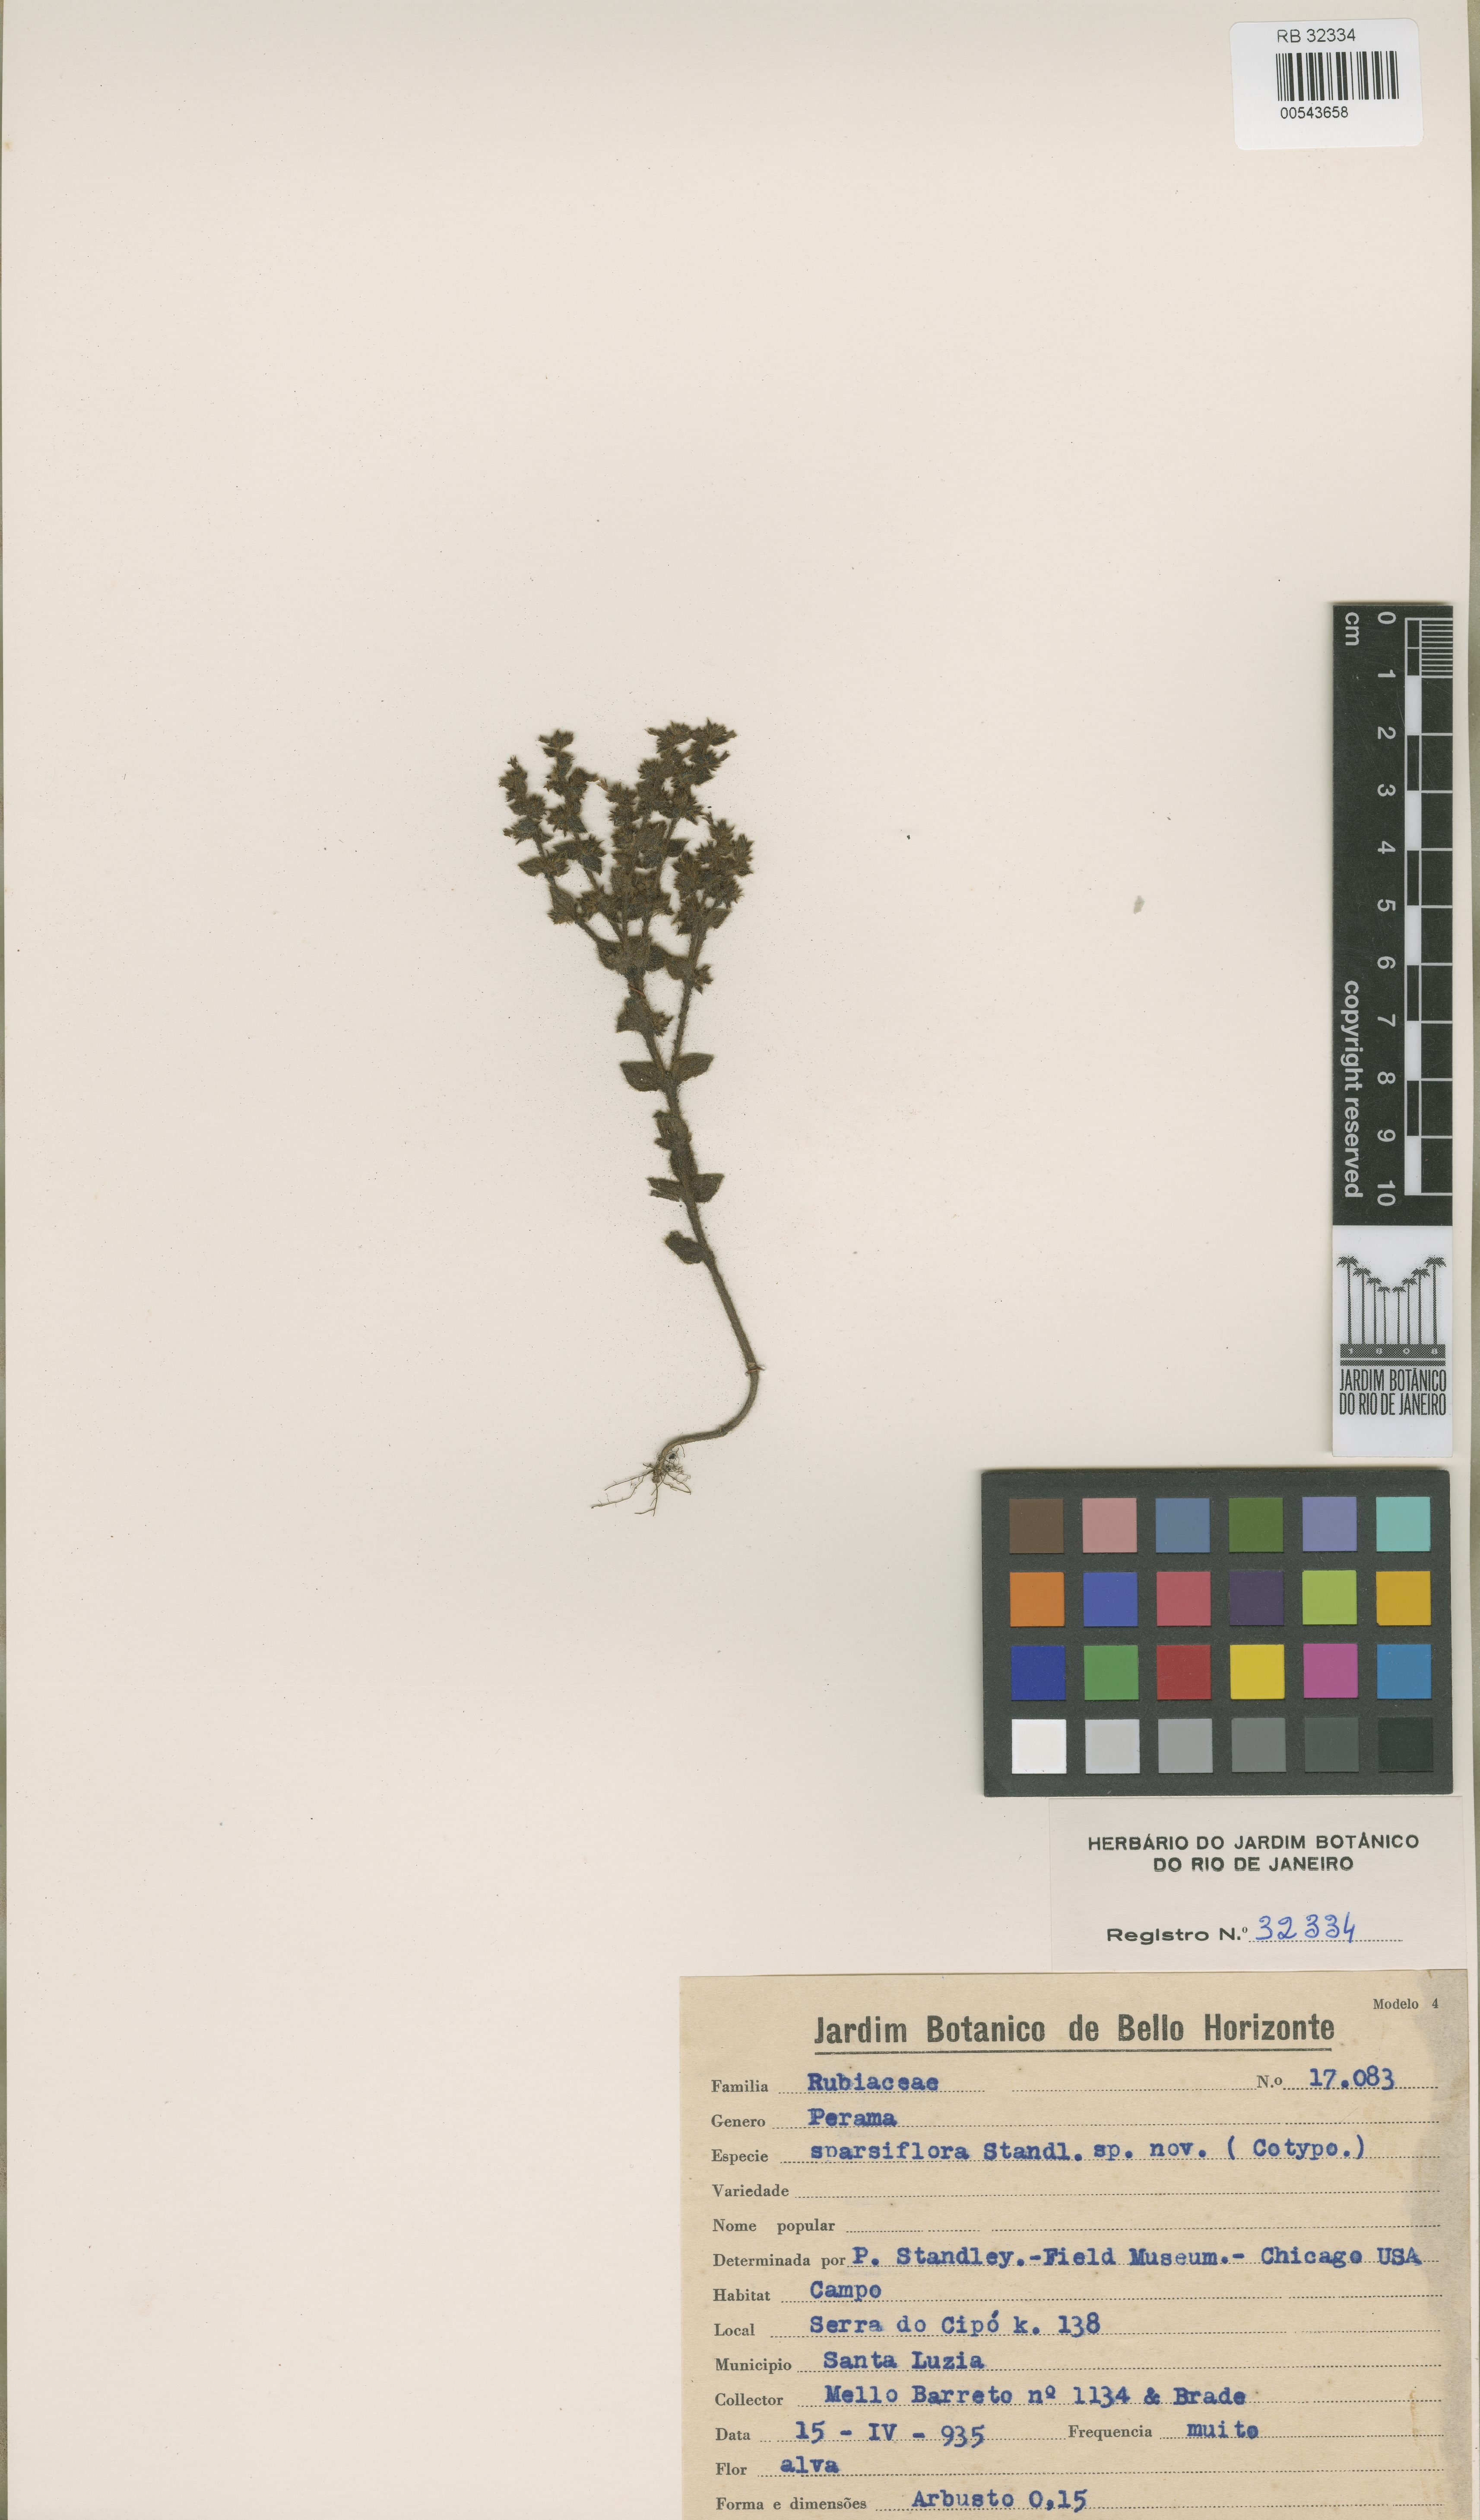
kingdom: Plantae
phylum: Tracheophyta
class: Magnoliopsida
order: Gentianales
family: Rubiaceae
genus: Perama
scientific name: Perama sparsiflora
